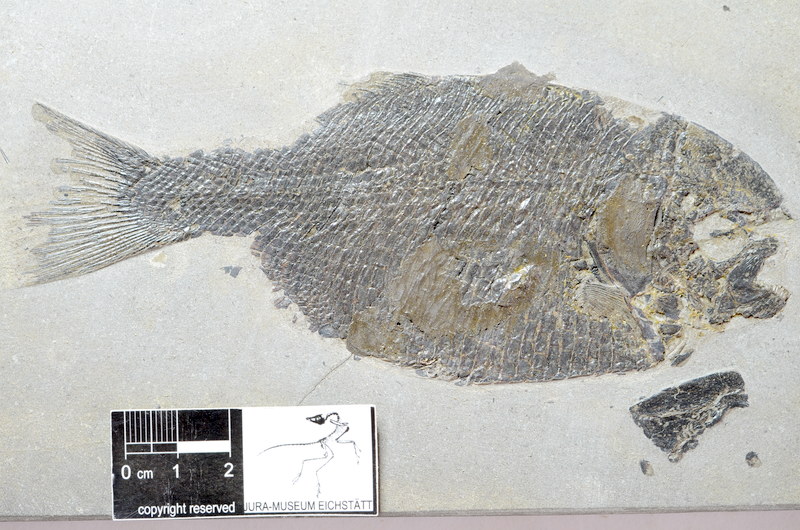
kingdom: Animalia
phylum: Chordata
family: Dapediidae
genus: Dapedium
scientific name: Dapedium
